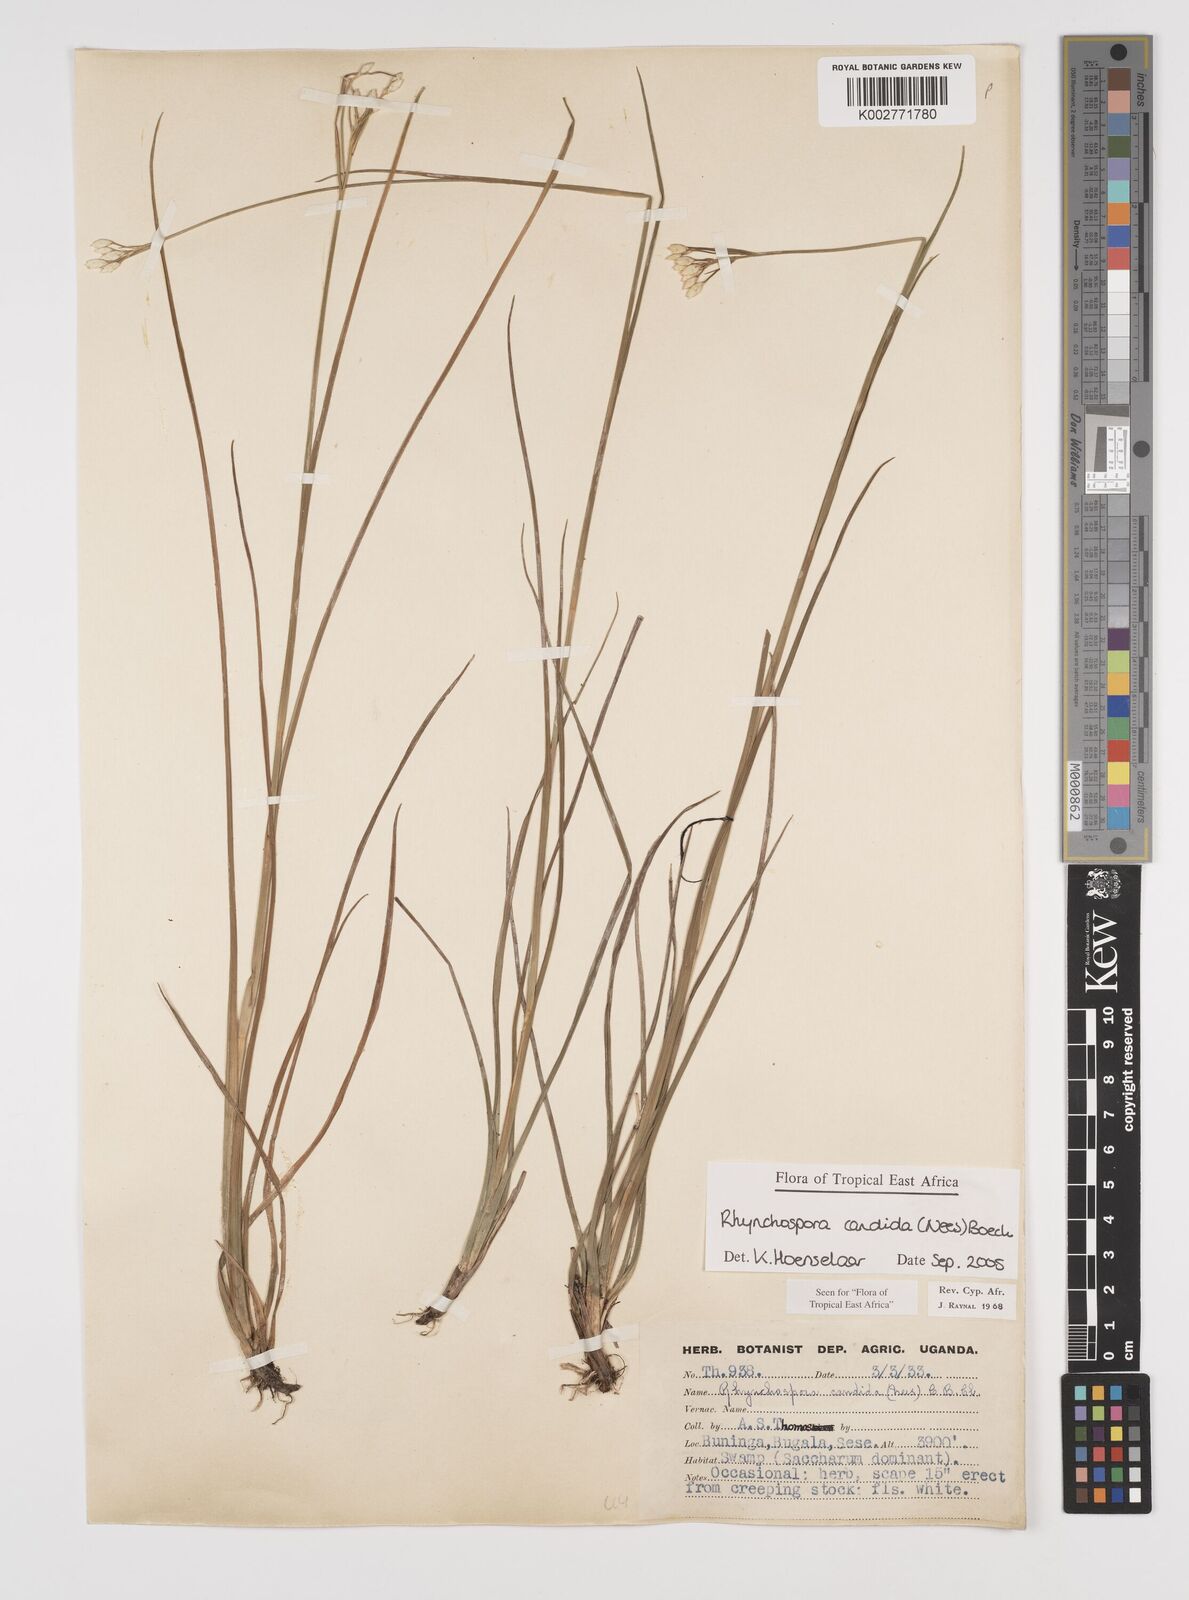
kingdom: Plantae
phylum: Tracheophyta
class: Liliopsida
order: Poales
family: Cyperaceae
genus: Rhynchospora
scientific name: Rhynchospora candida
